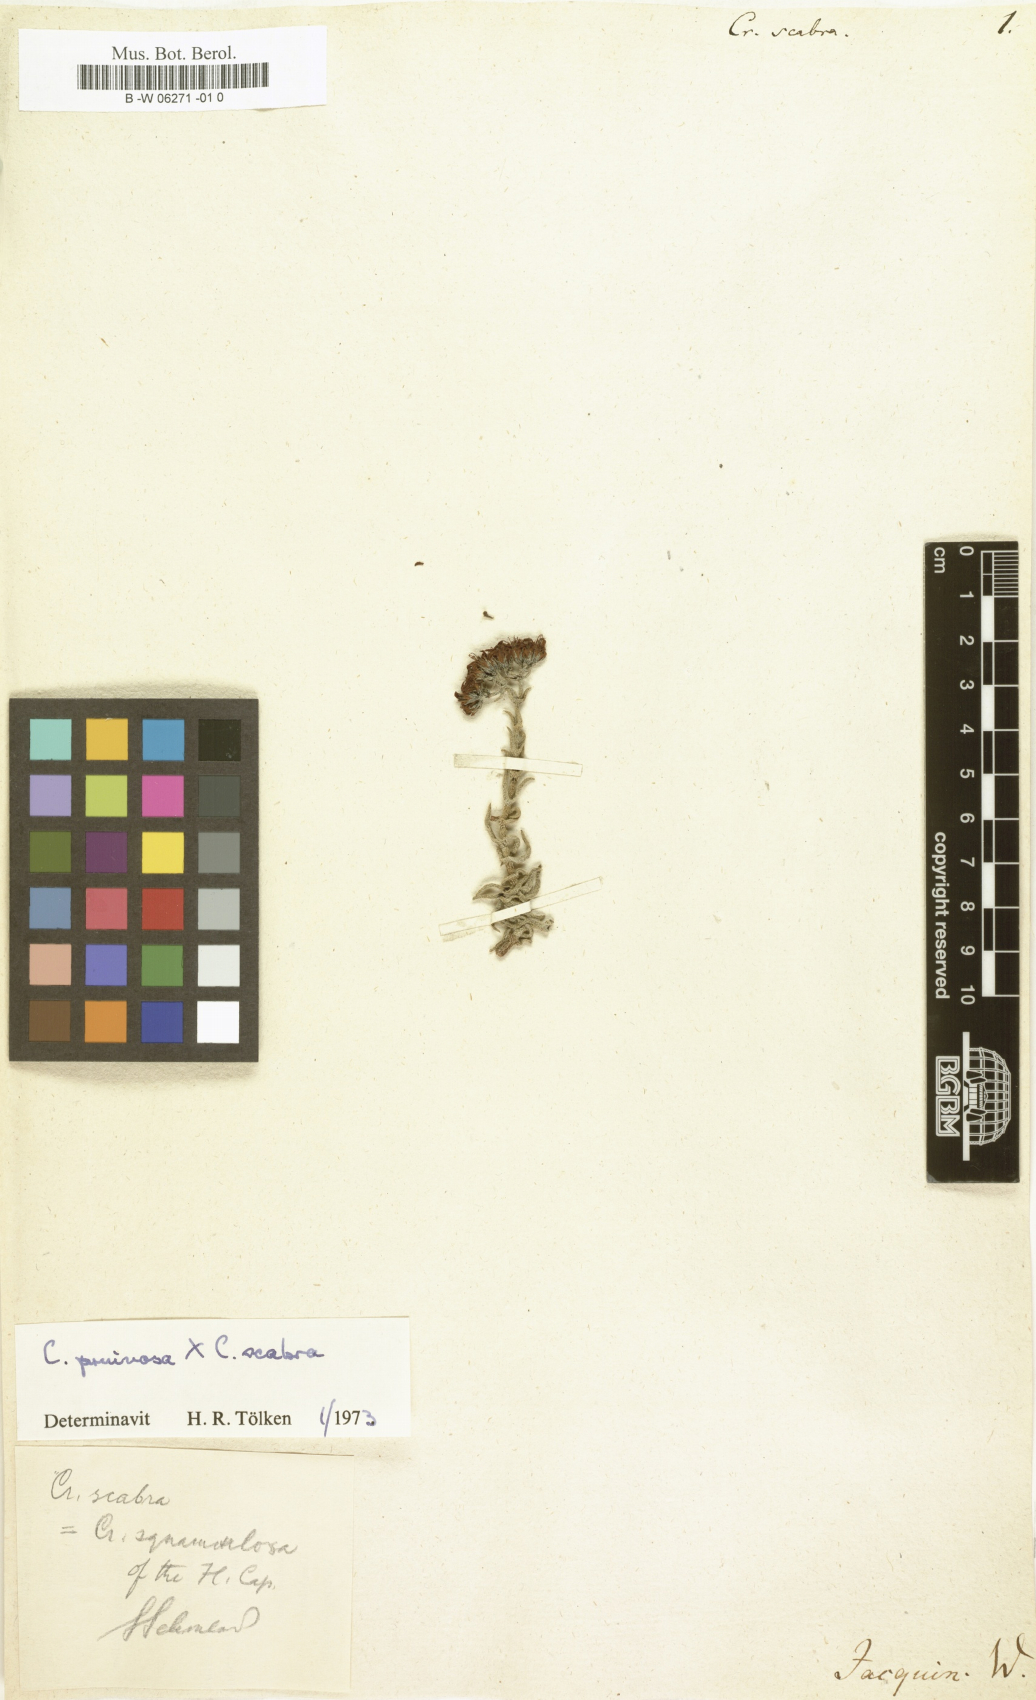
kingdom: Plantae
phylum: Tracheophyta
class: Magnoliopsida
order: Saxifragales
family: Crassulaceae
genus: Crassula
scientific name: Crassula scabra
